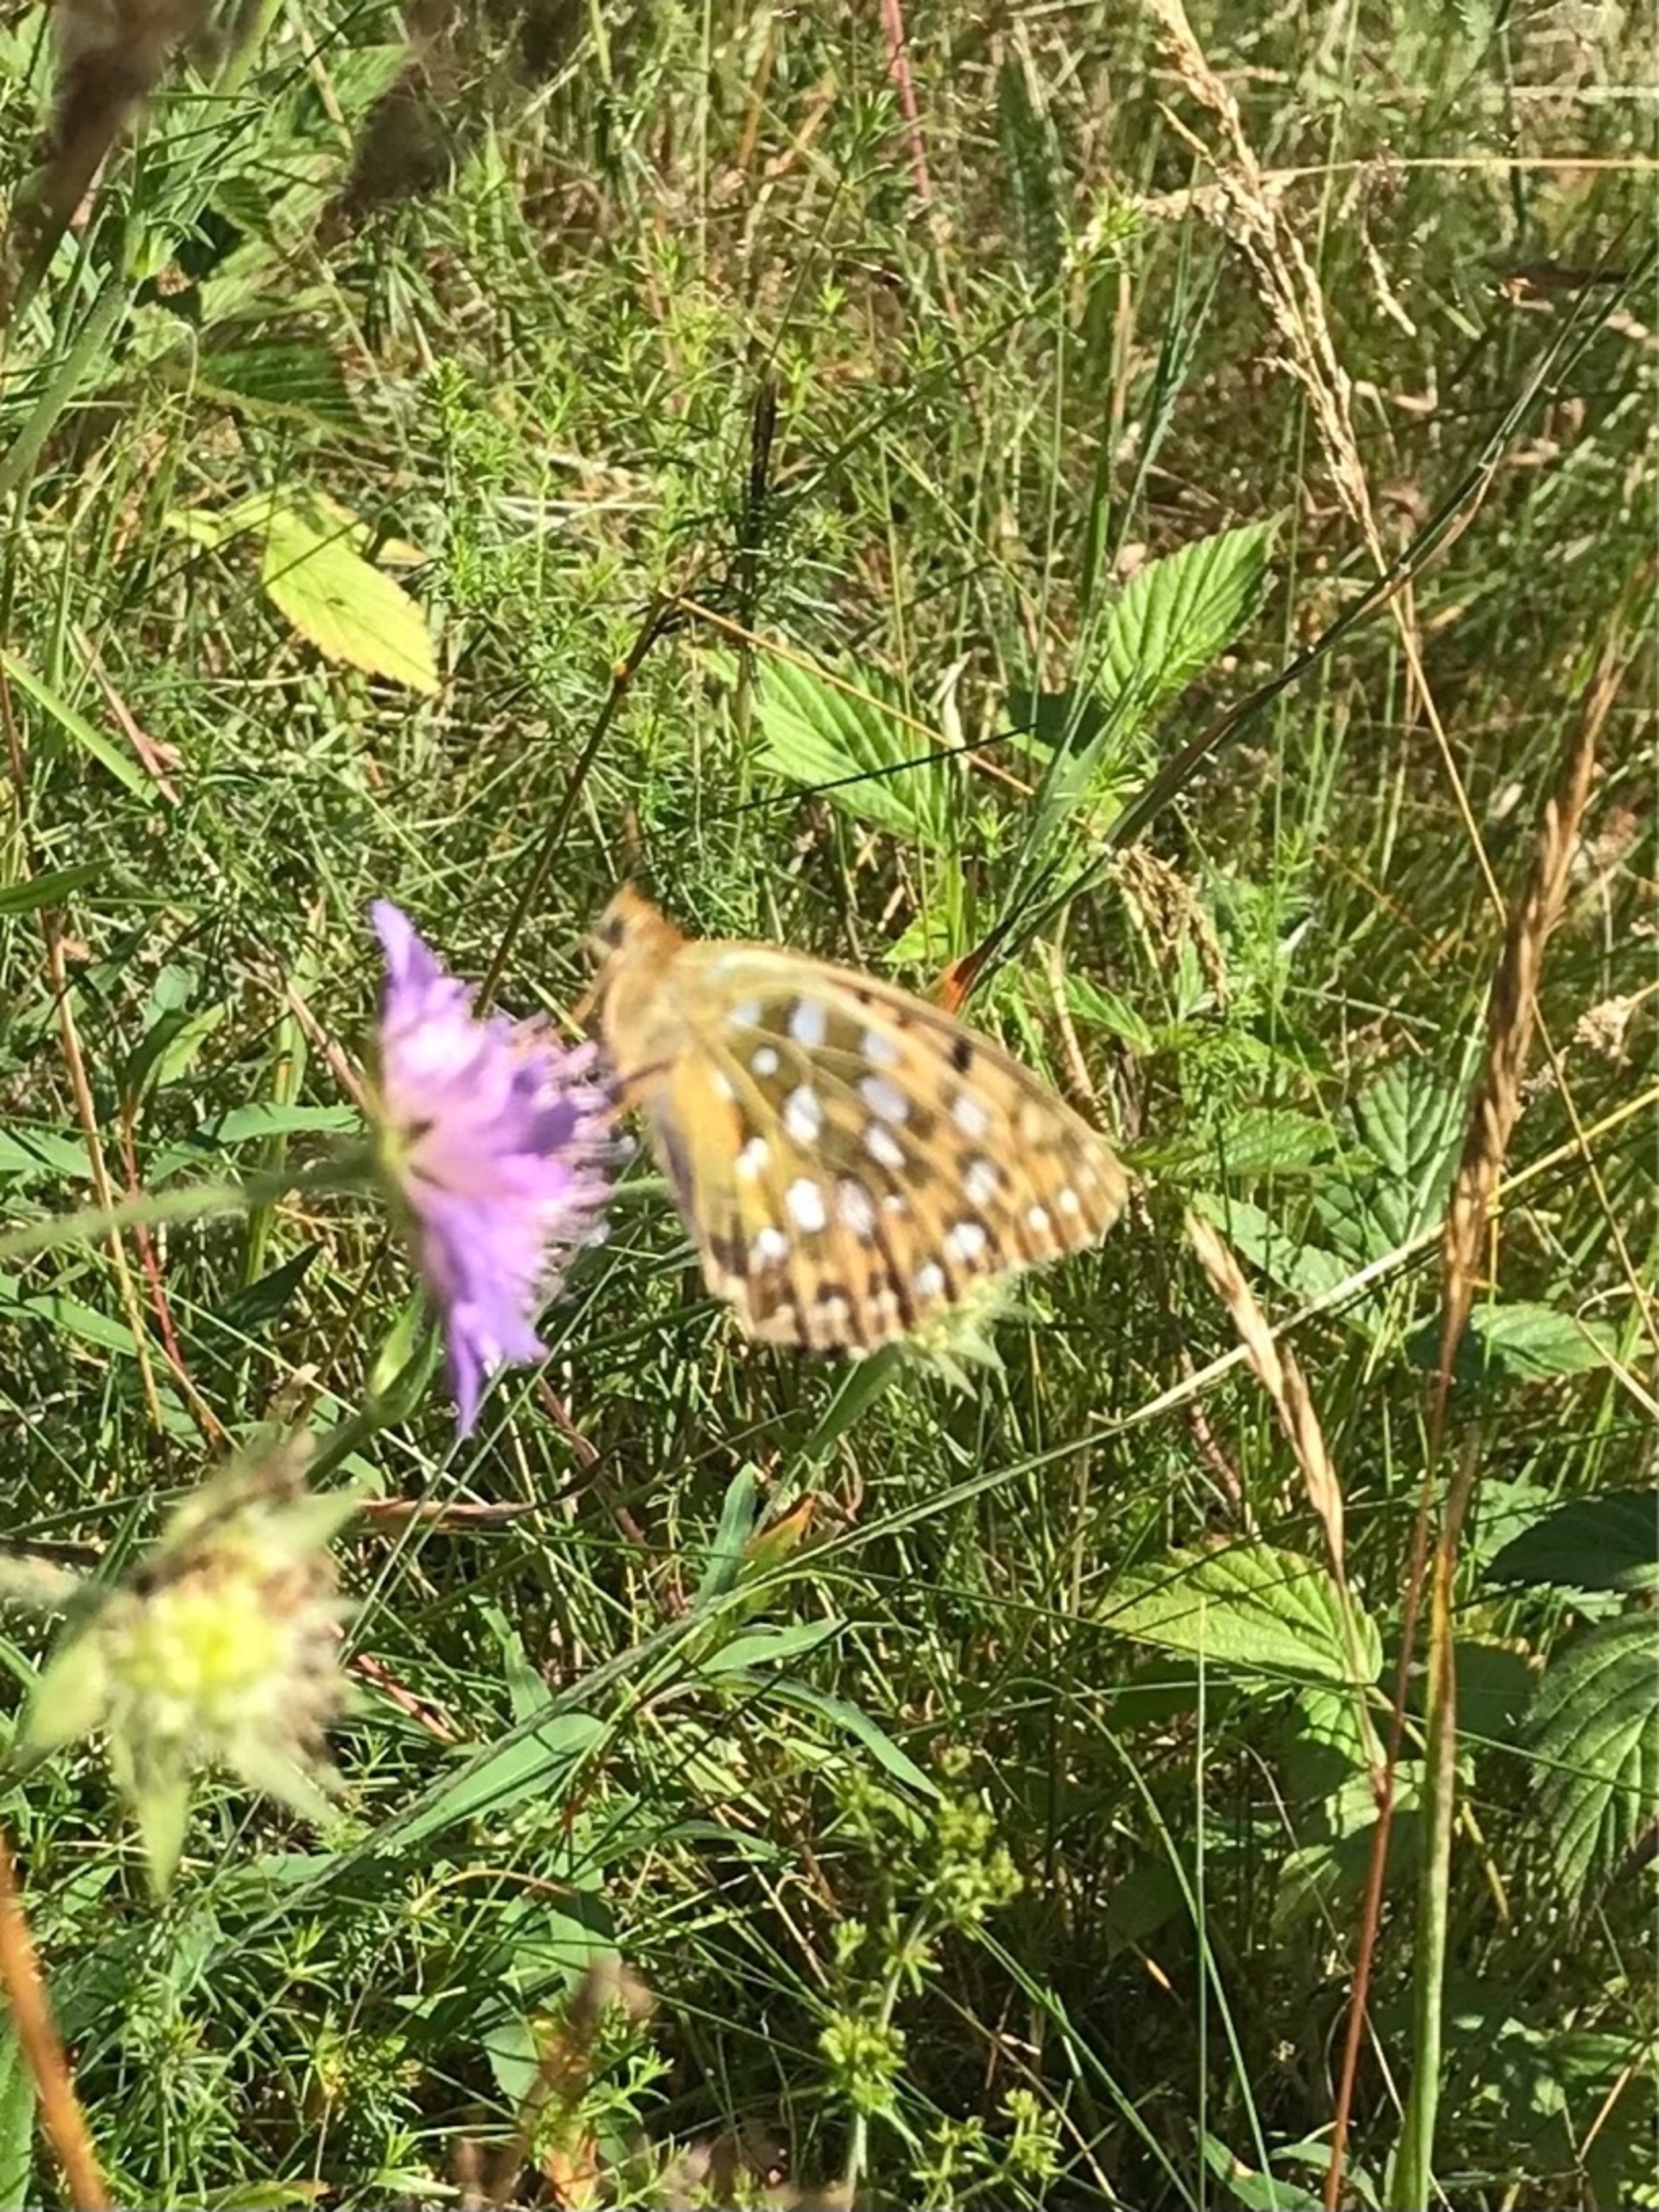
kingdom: Animalia
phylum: Arthropoda
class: Insecta
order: Lepidoptera
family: Nymphalidae
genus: Speyeria
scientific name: Speyeria aglaja
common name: Markperlemorsommerfugl
